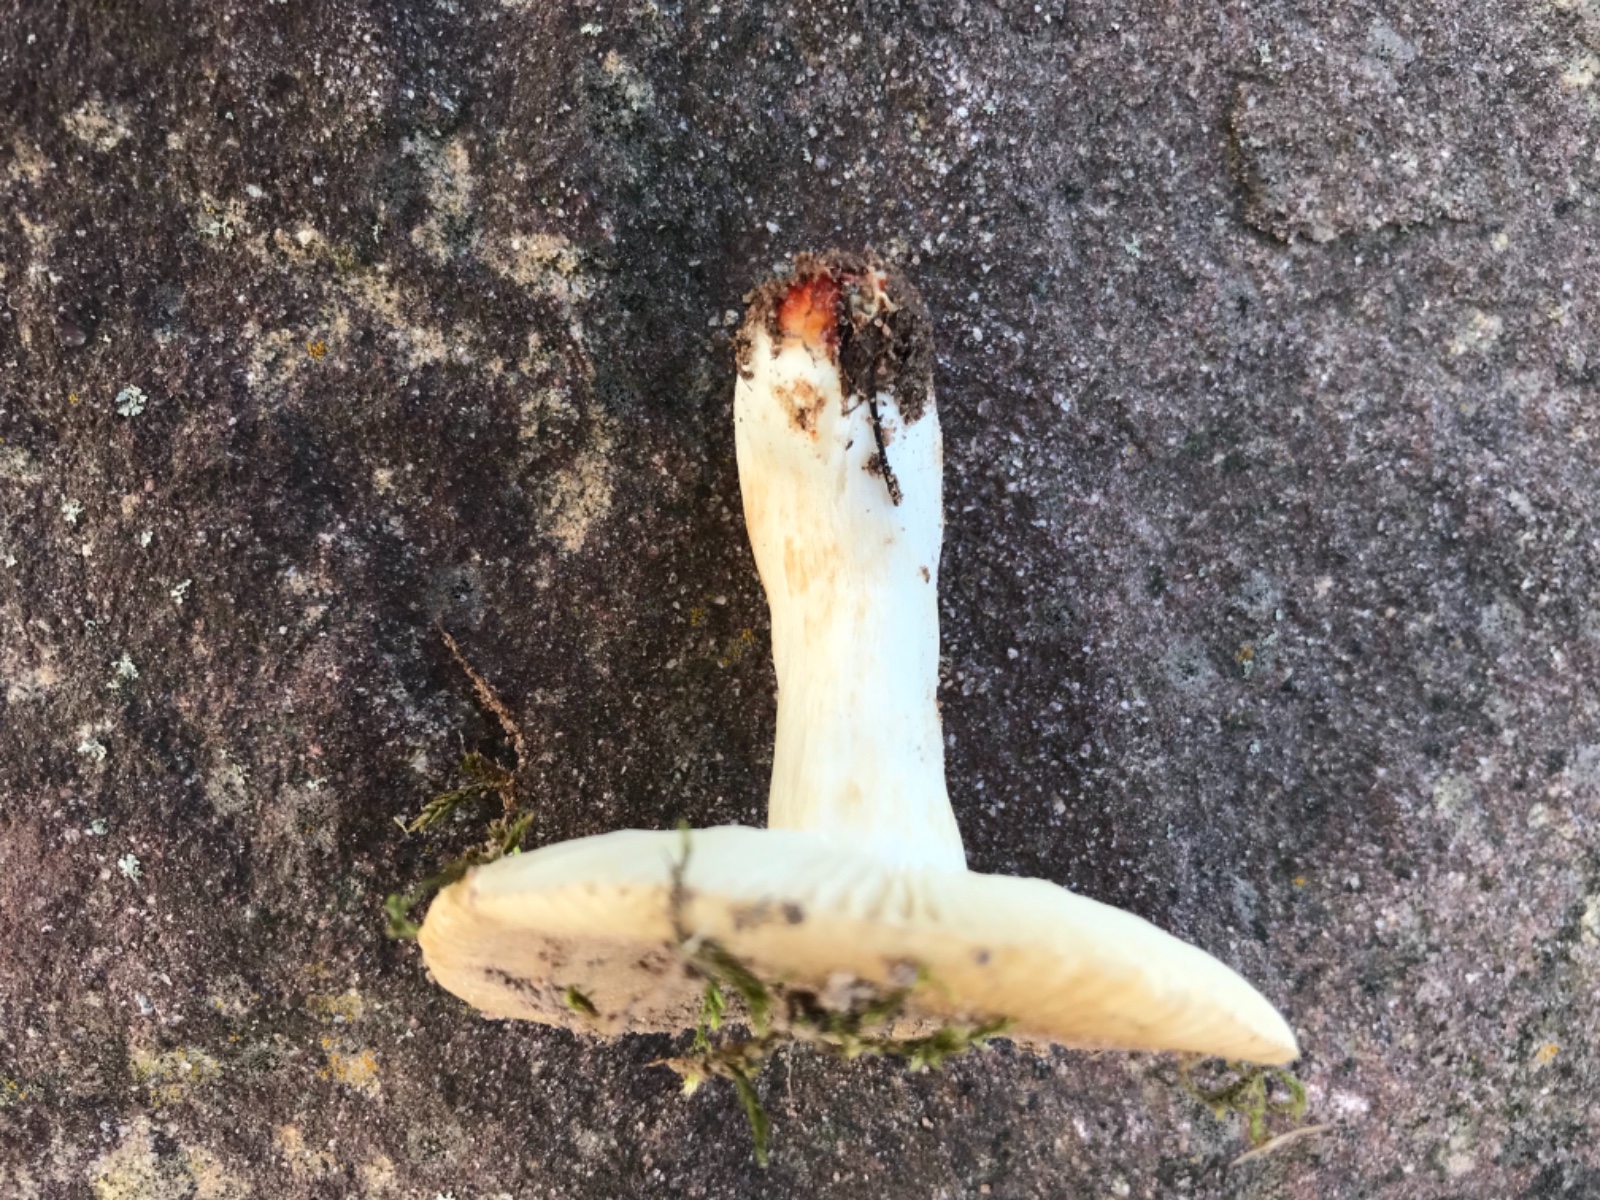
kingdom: Fungi
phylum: Basidiomycota
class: Agaricomycetes
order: Russulales
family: Russulaceae
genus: Russula
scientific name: Russula insignis
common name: gulfodet kam-skørhat
